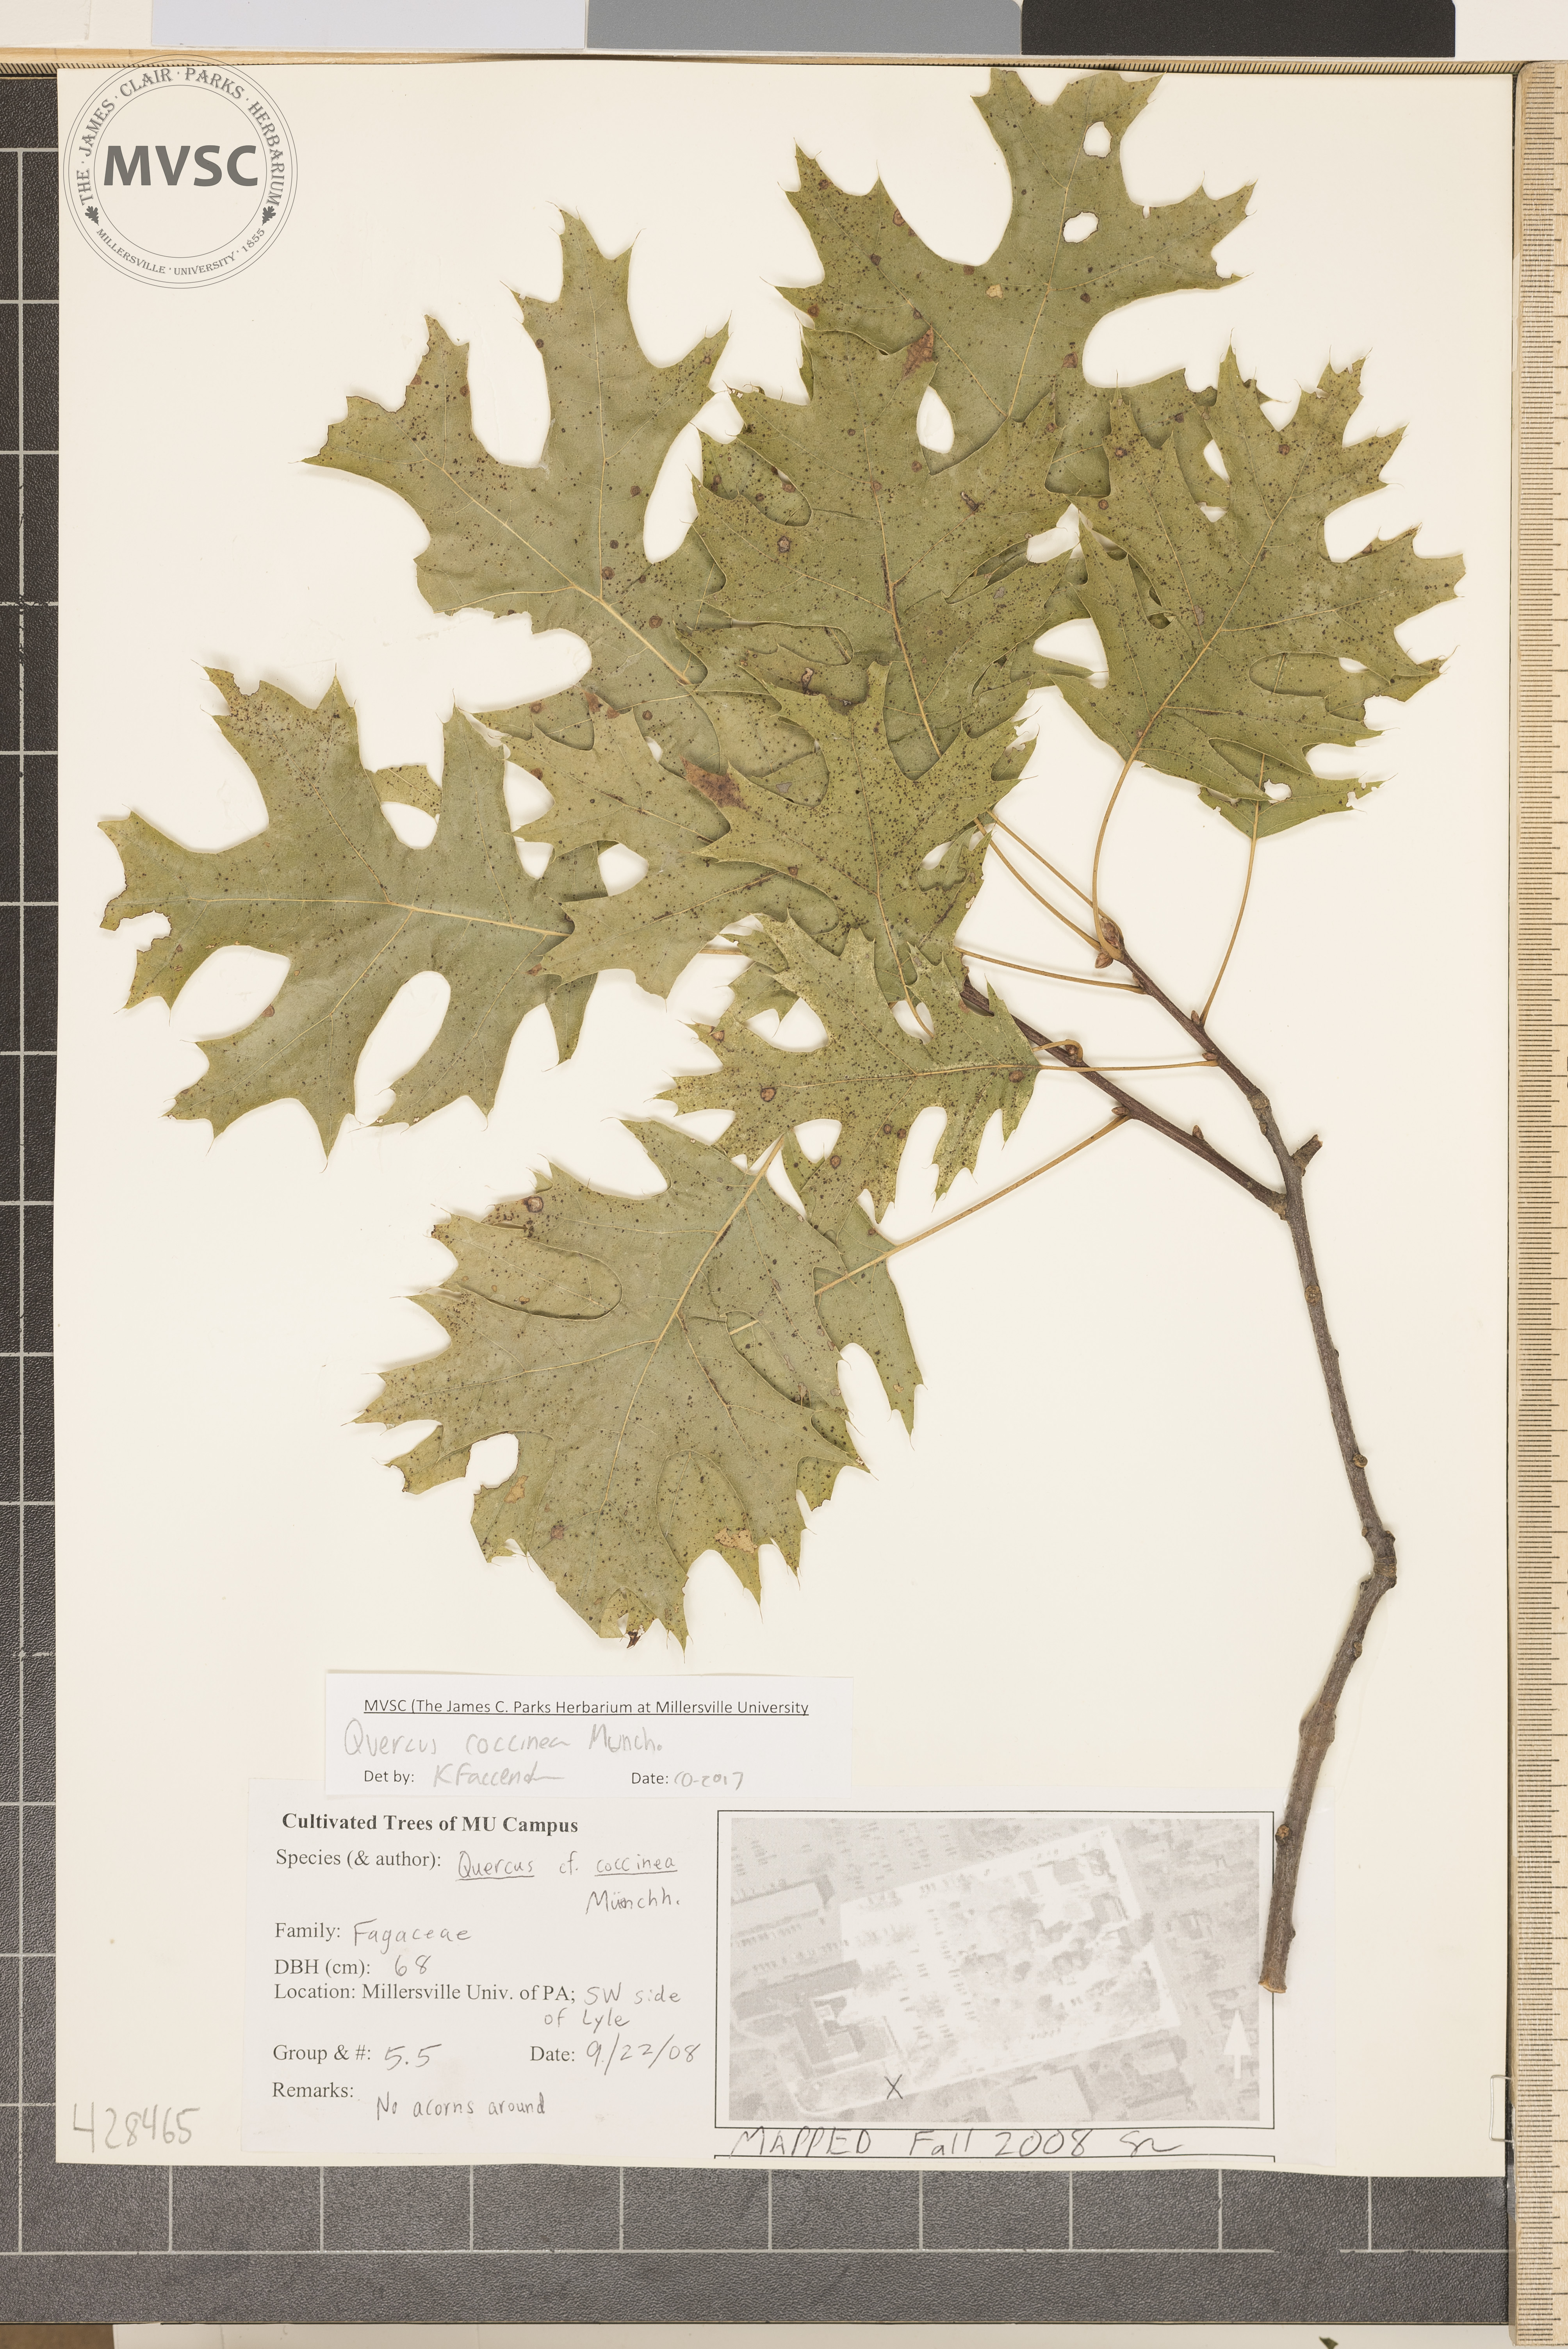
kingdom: Plantae
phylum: Tracheophyta
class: Magnoliopsida
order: Fagales
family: Fagaceae
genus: Quercus
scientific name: Quercus coccinea
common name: Scarlet Oak
